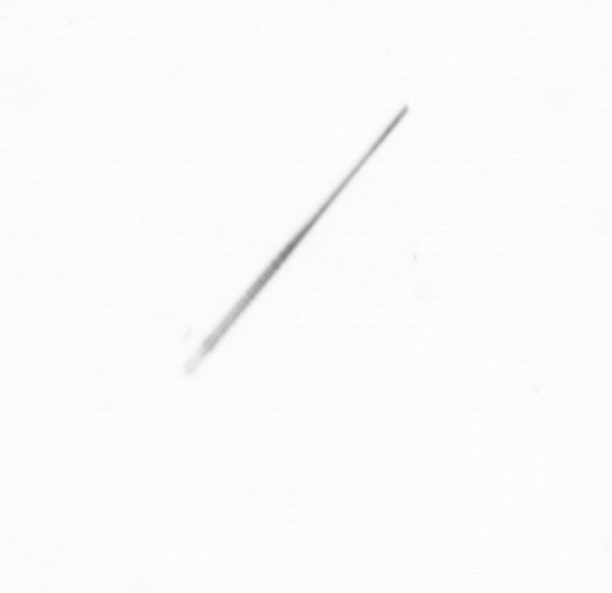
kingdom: Chromista
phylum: Ochrophyta
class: Bacillariophyceae
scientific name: Bacillariophyceae
